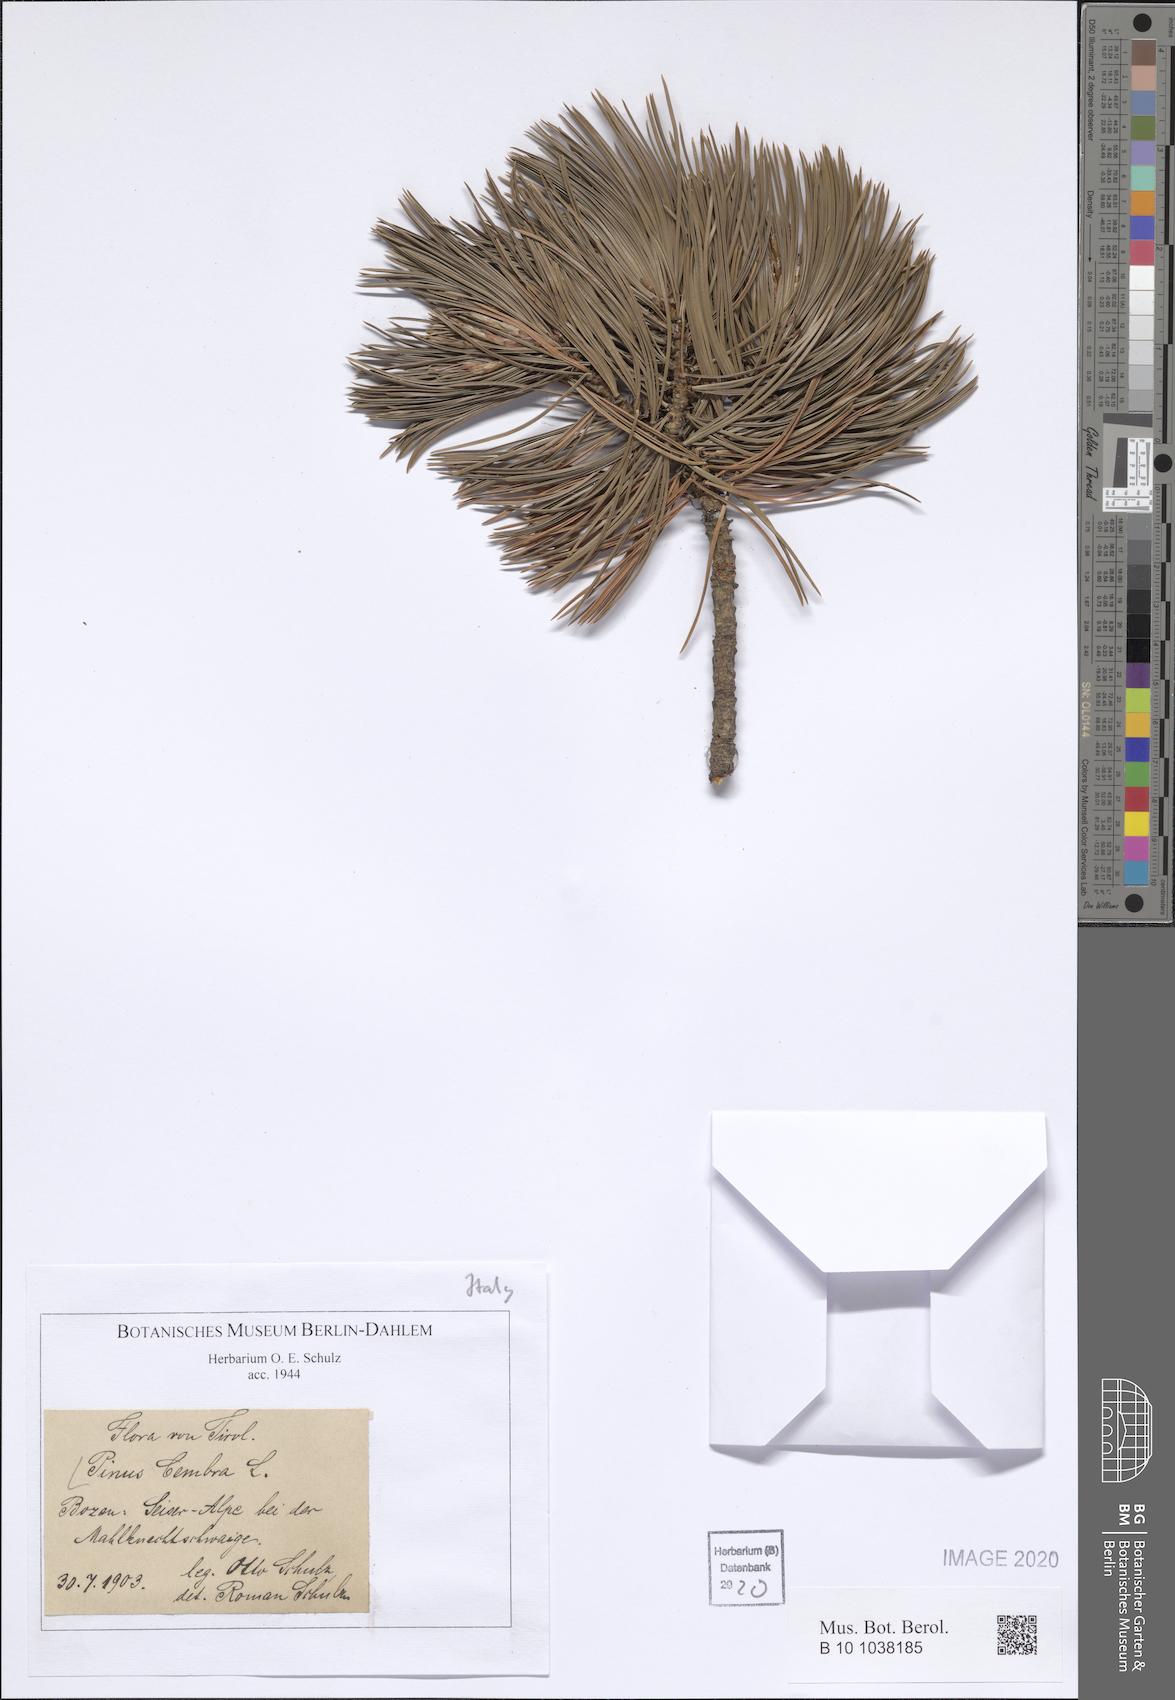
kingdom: Plantae
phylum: Tracheophyta
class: Pinopsida
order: Pinales
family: Pinaceae
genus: Pinus
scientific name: Pinus cembra
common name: Arolla pine
